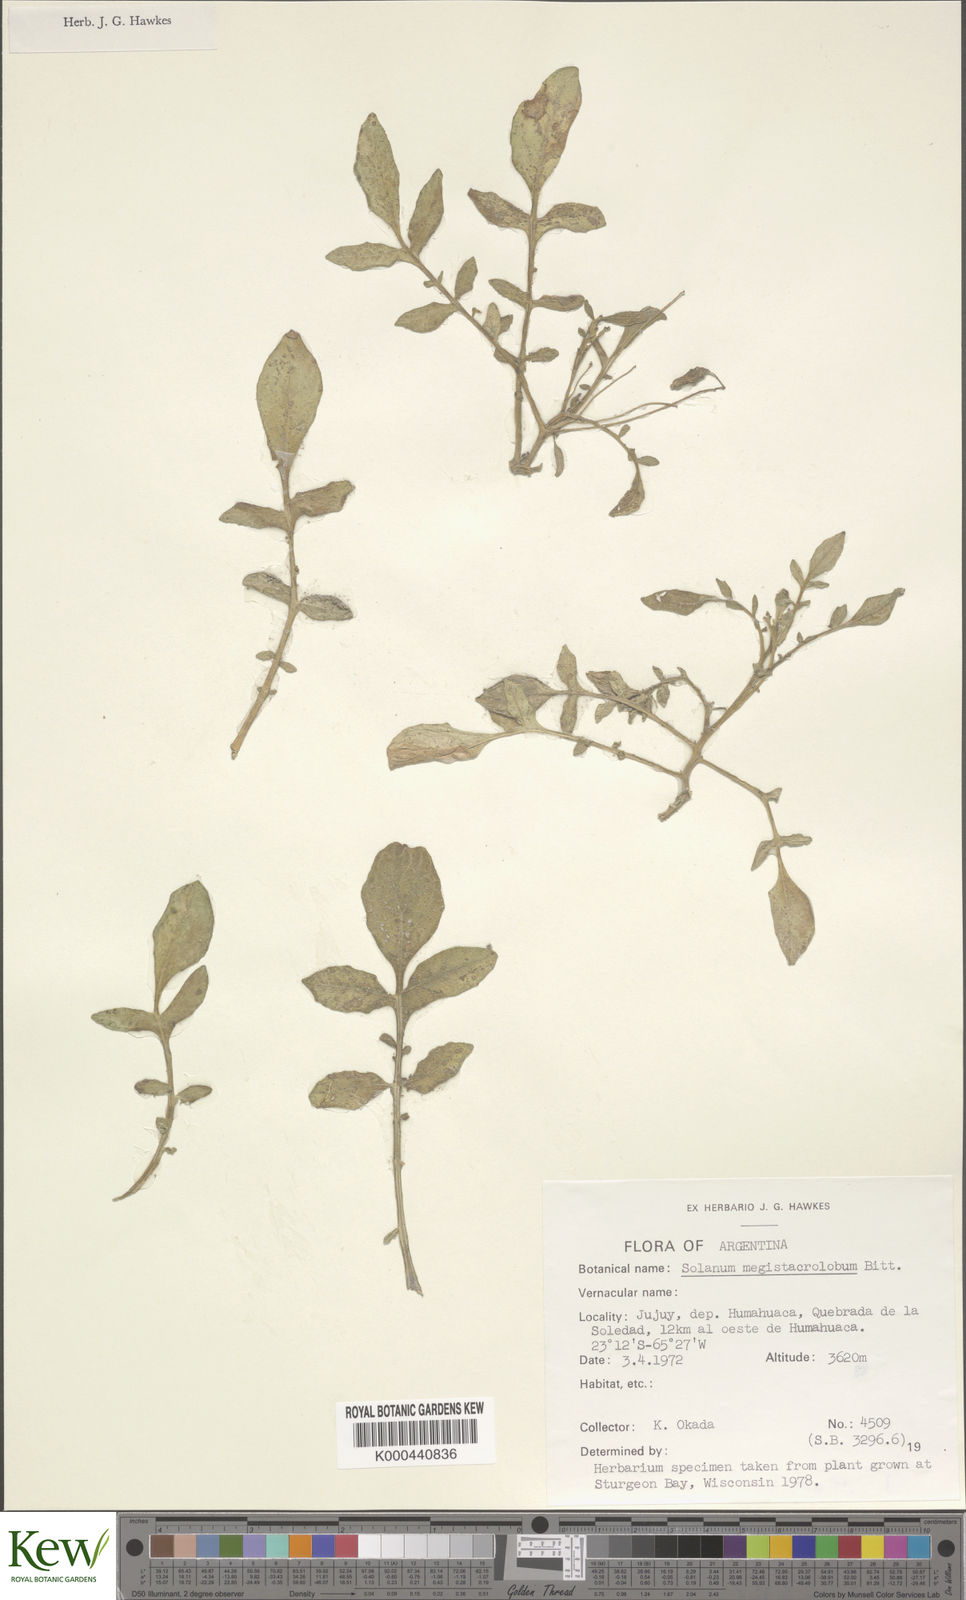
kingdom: Plantae
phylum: Tracheophyta
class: Magnoliopsida
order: Solanales
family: Solanaceae
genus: Solanum
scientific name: Solanum boliviense
